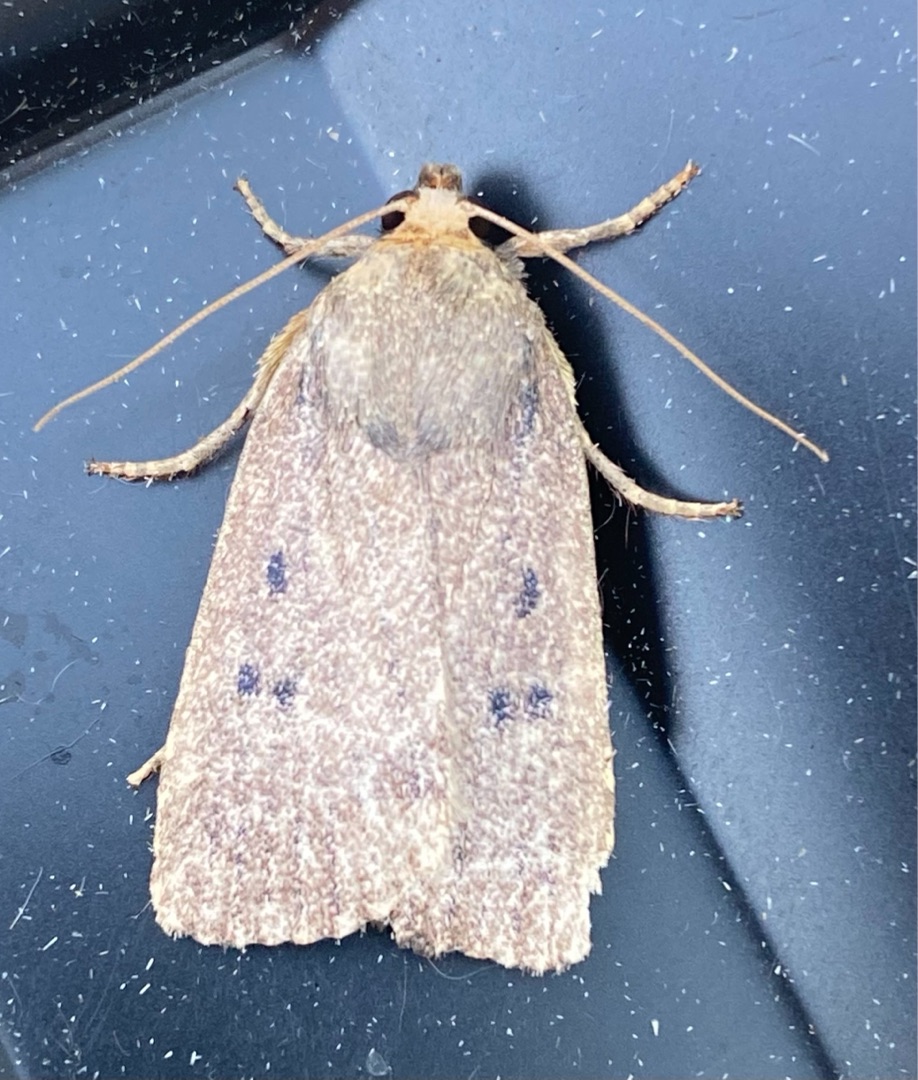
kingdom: Animalia
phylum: Arthropoda
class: Insecta
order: Lepidoptera
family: Noctuidae
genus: Amphipyra
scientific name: Amphipyra tragopoginis
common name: Blyantsugle
